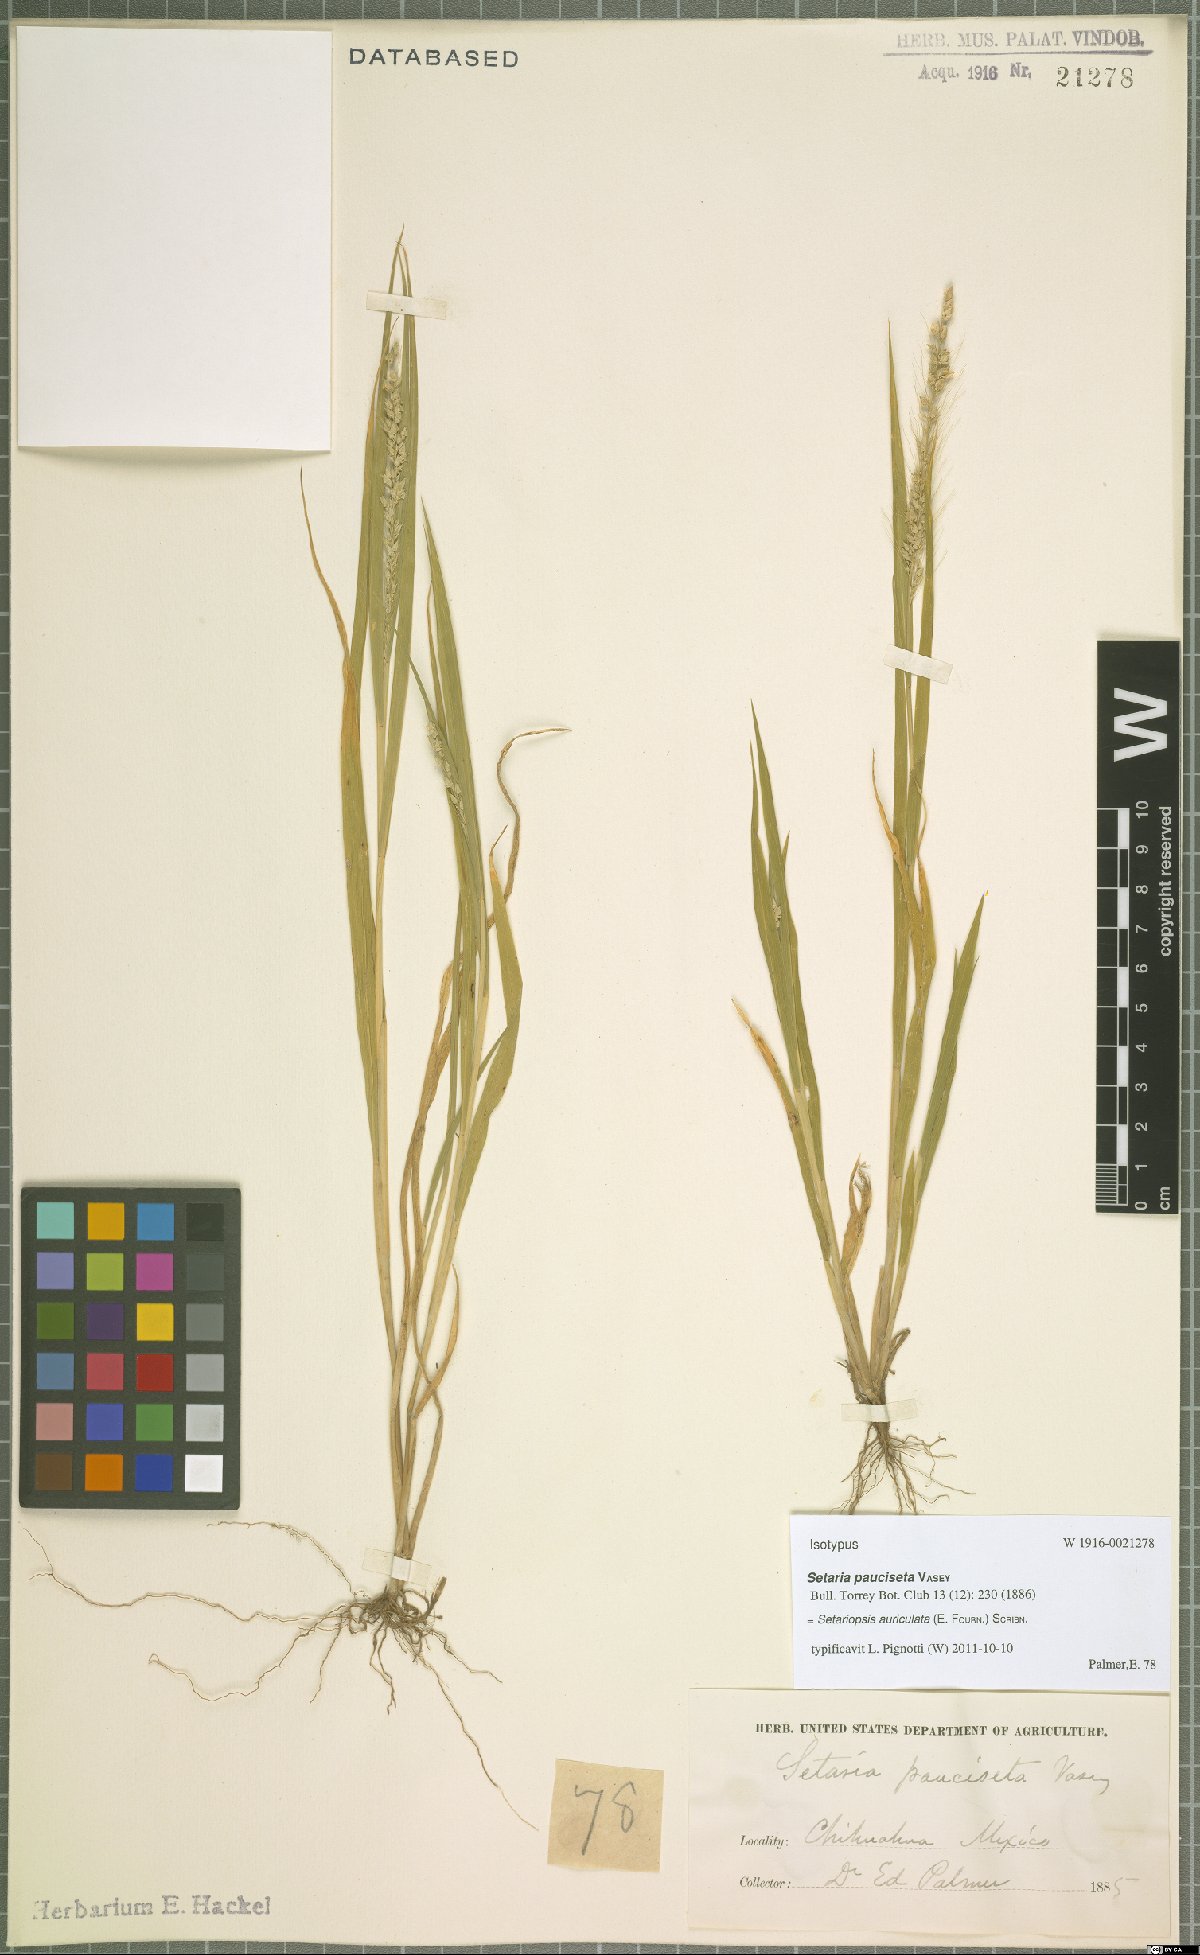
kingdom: Plantae
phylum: Tracheophyta
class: Liliopsida
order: Poales
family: Poaceae
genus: Setariopsis
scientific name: Setariopsis auriculata
